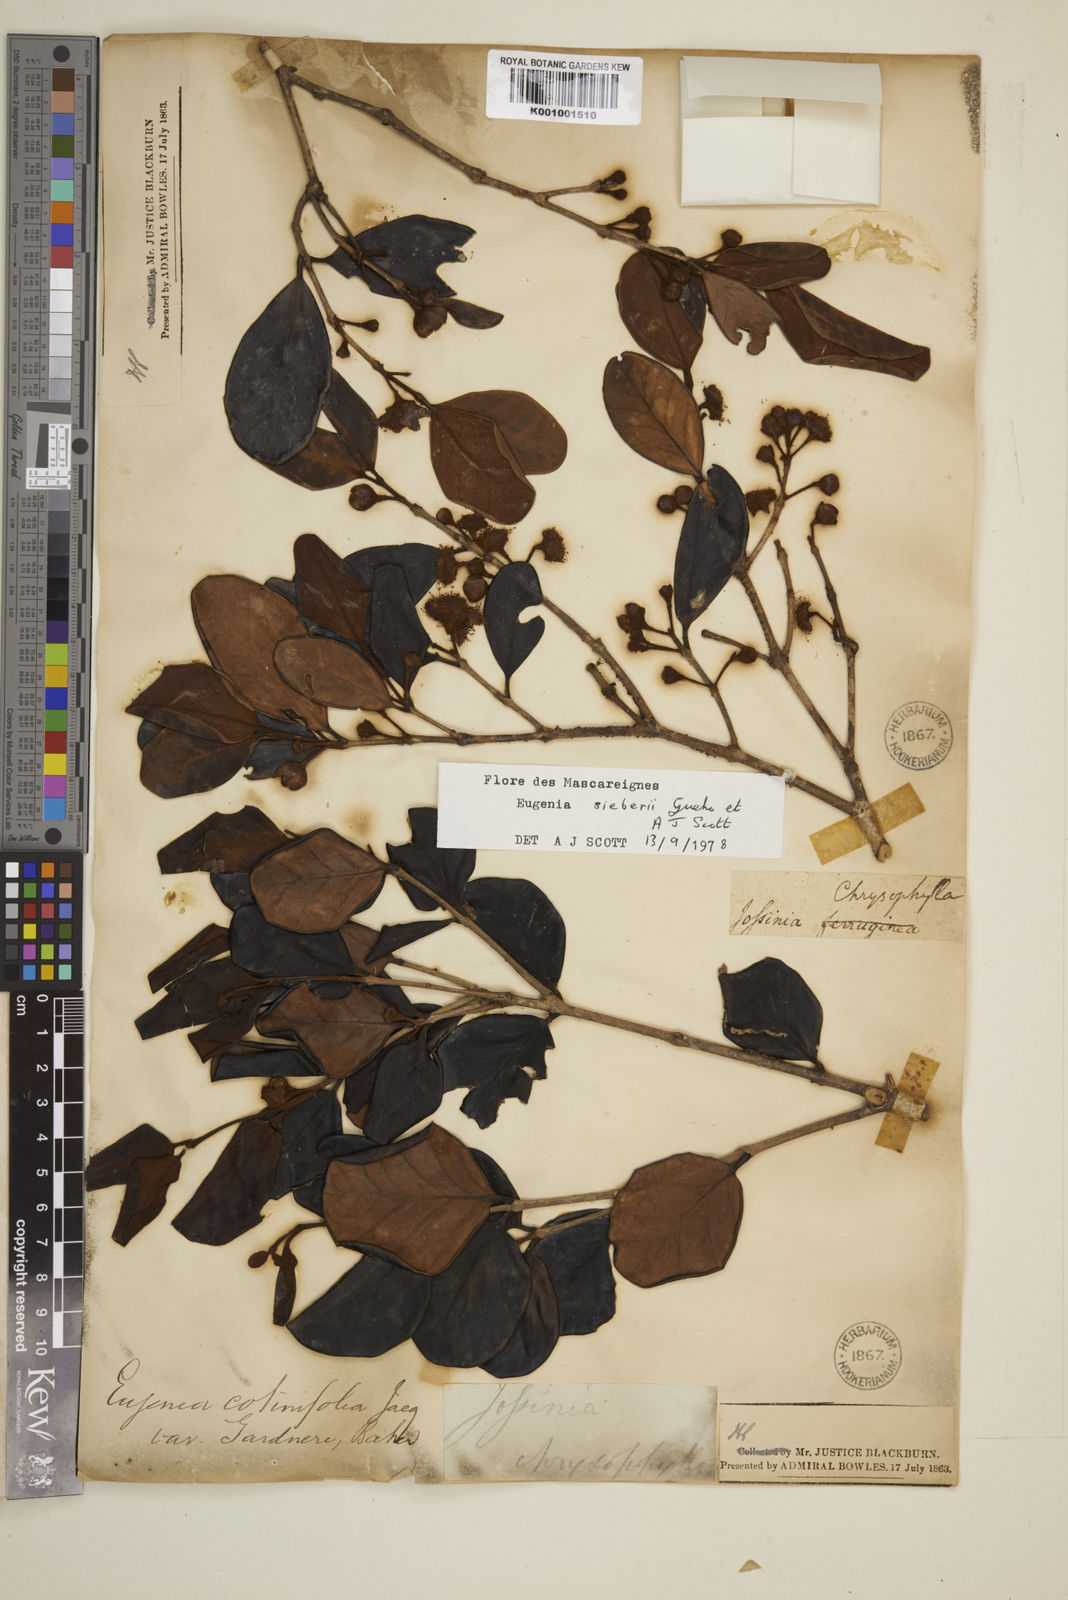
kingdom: Plantae
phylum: Tracheophyta
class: Magnoliopsida
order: Myrtales
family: Myrtaceae
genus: Eugenia
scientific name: Eugenia
